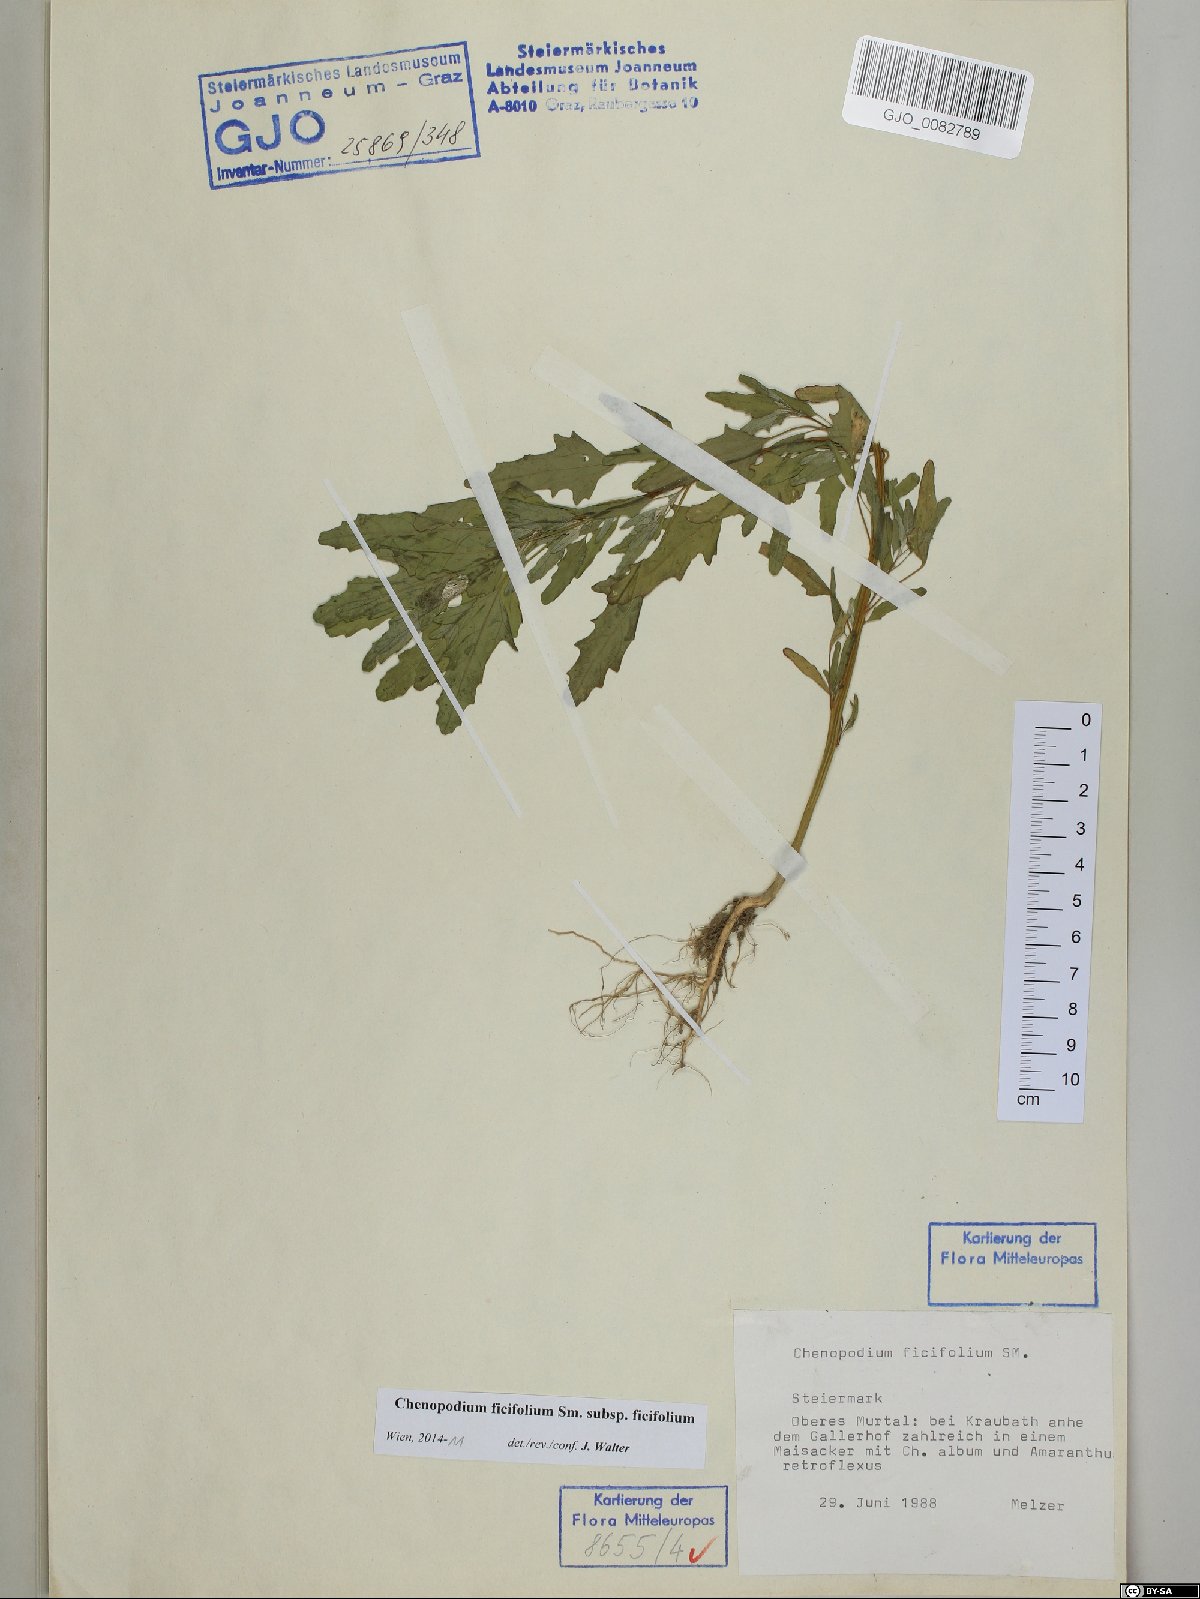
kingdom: Plantae
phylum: Tracheophyta
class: Magnoliopsida
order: Caryophyllales
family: Amaranthaceae
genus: Chenopodium
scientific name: Chenopodium ficifolium
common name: Fig-leaved goosefoot
